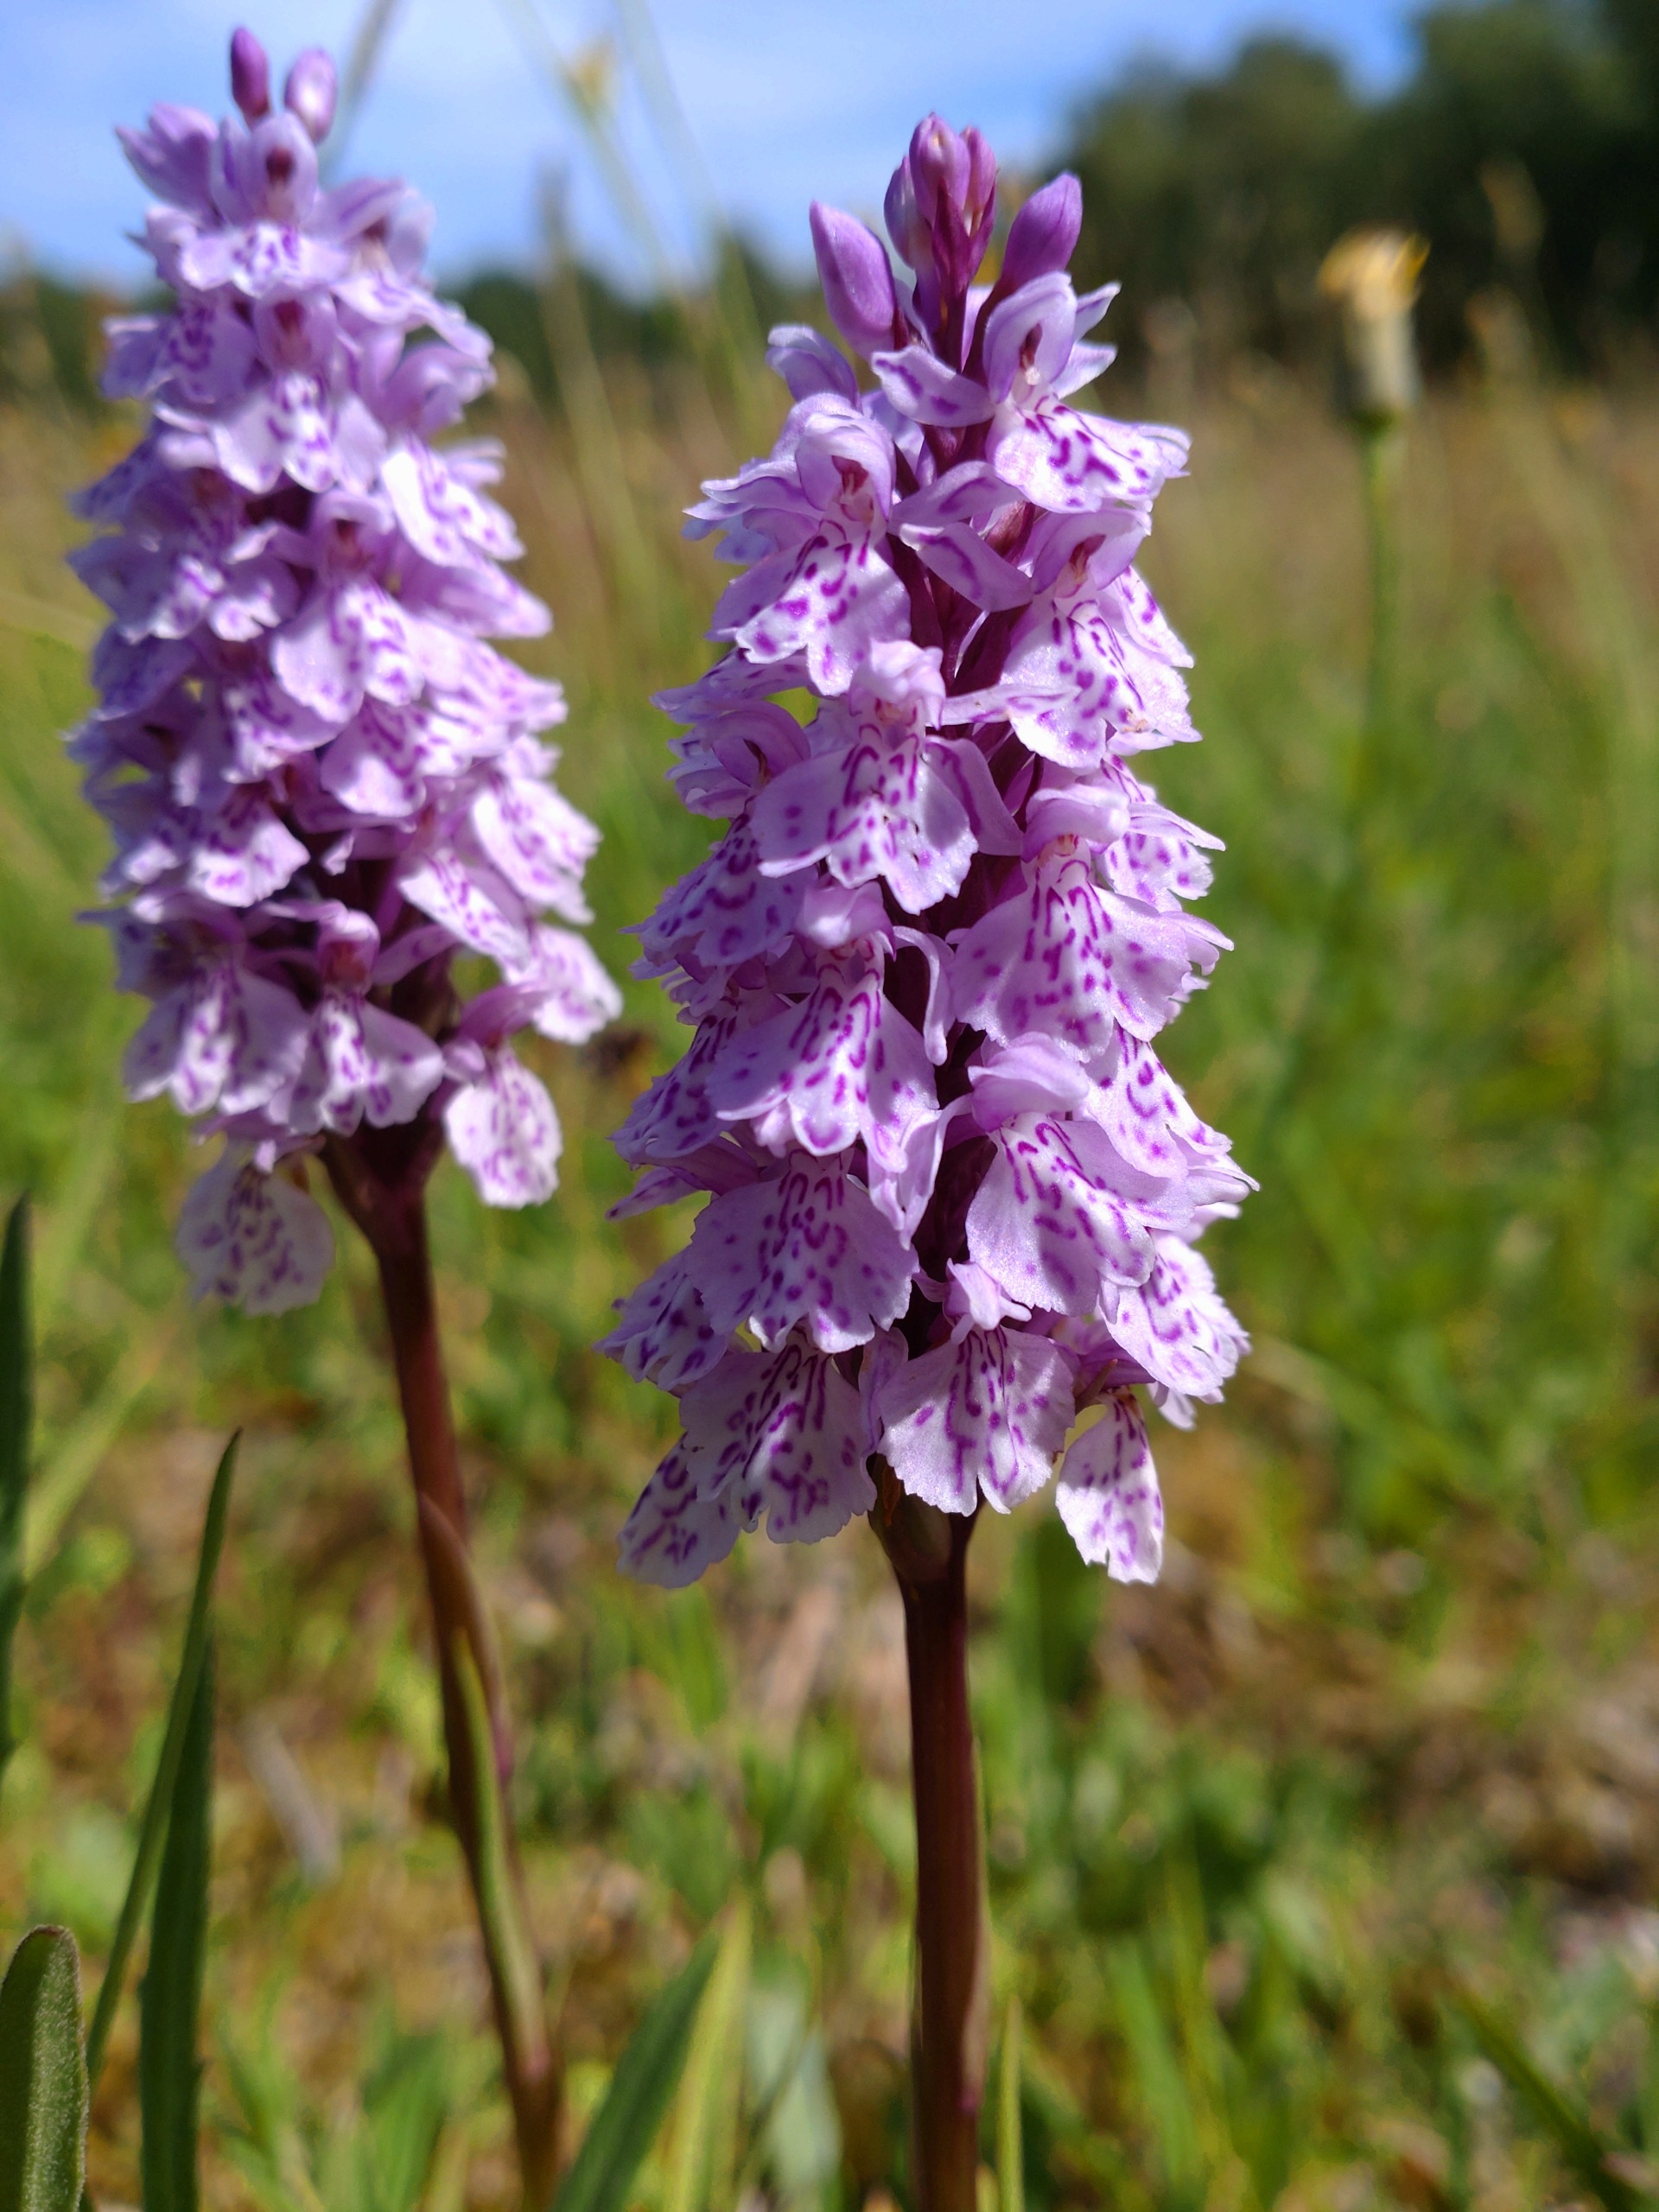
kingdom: Plantae
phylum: Tracheophyta
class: Liliopsida
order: Asparagales
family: Orchidaceae
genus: Dactylorhiza
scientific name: Dactylorhiza maculata
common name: Plettet gøgeurt
